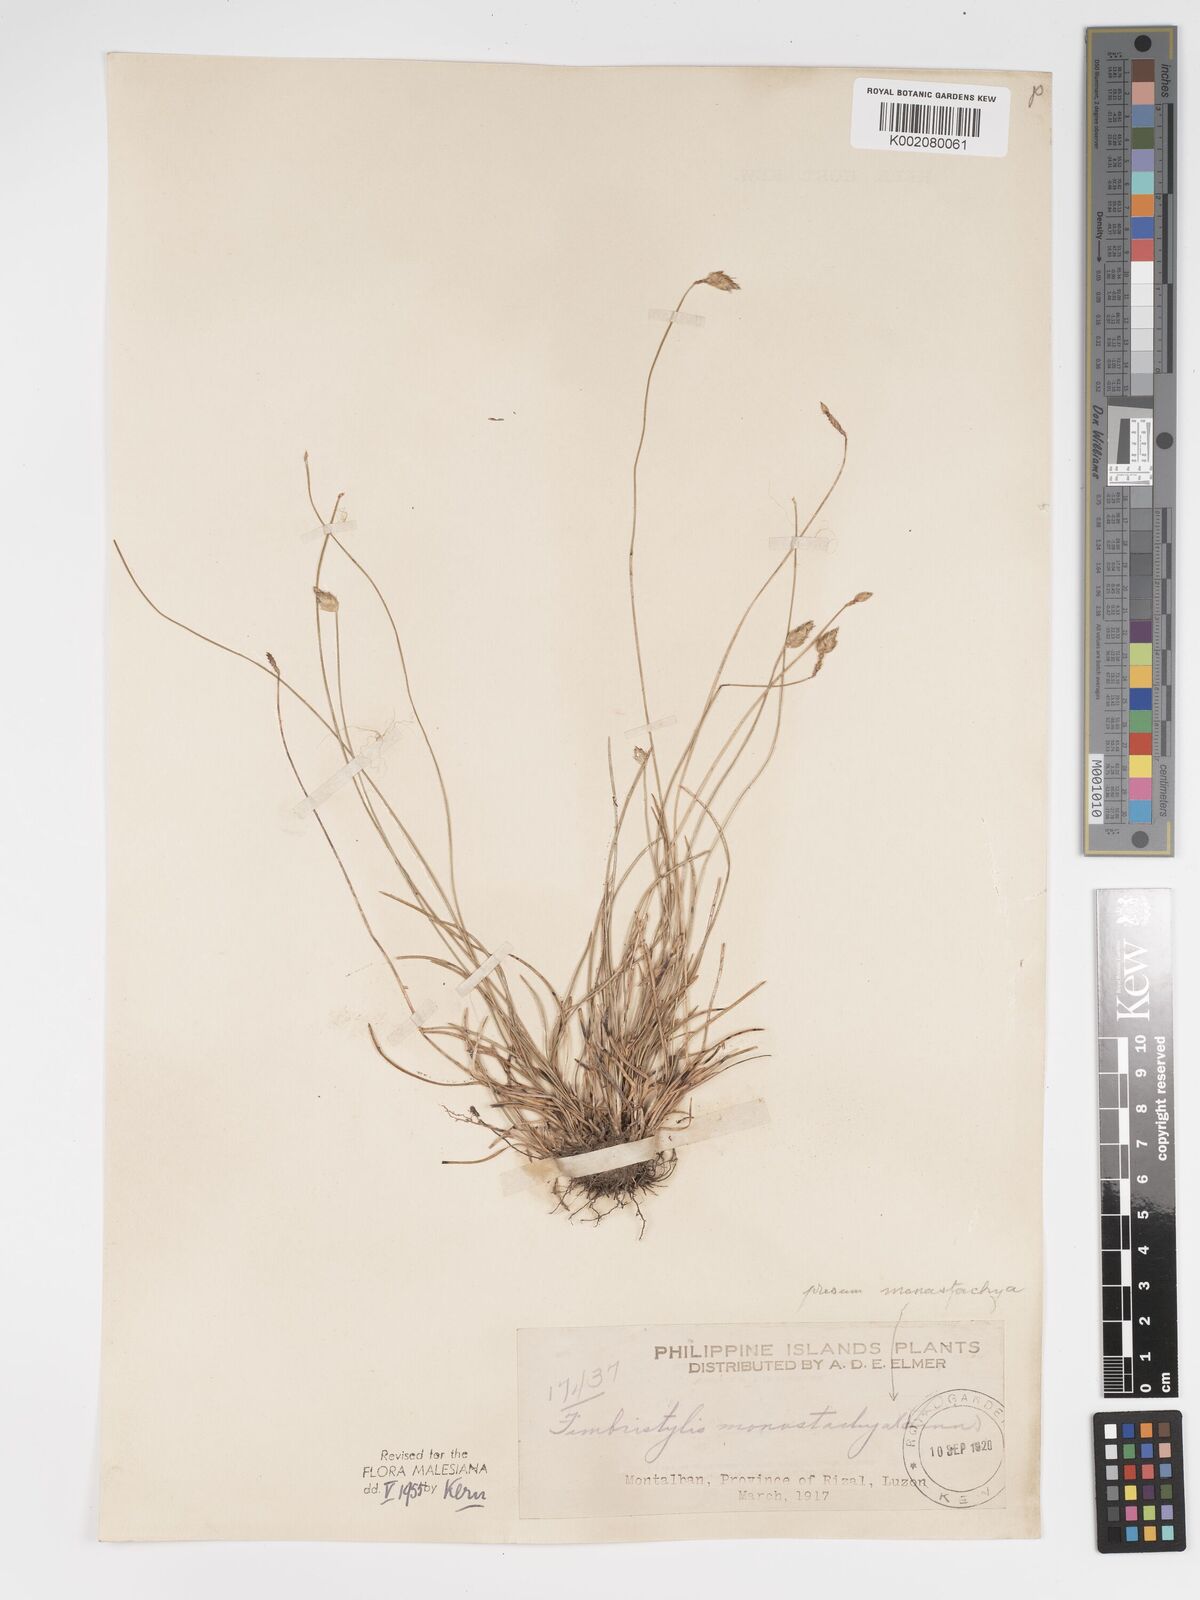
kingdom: Plantae
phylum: Tracheophyta
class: Liliopsida
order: Poales
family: Cyperaceae
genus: Abildgaardia
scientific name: Abildgaardia ovata
